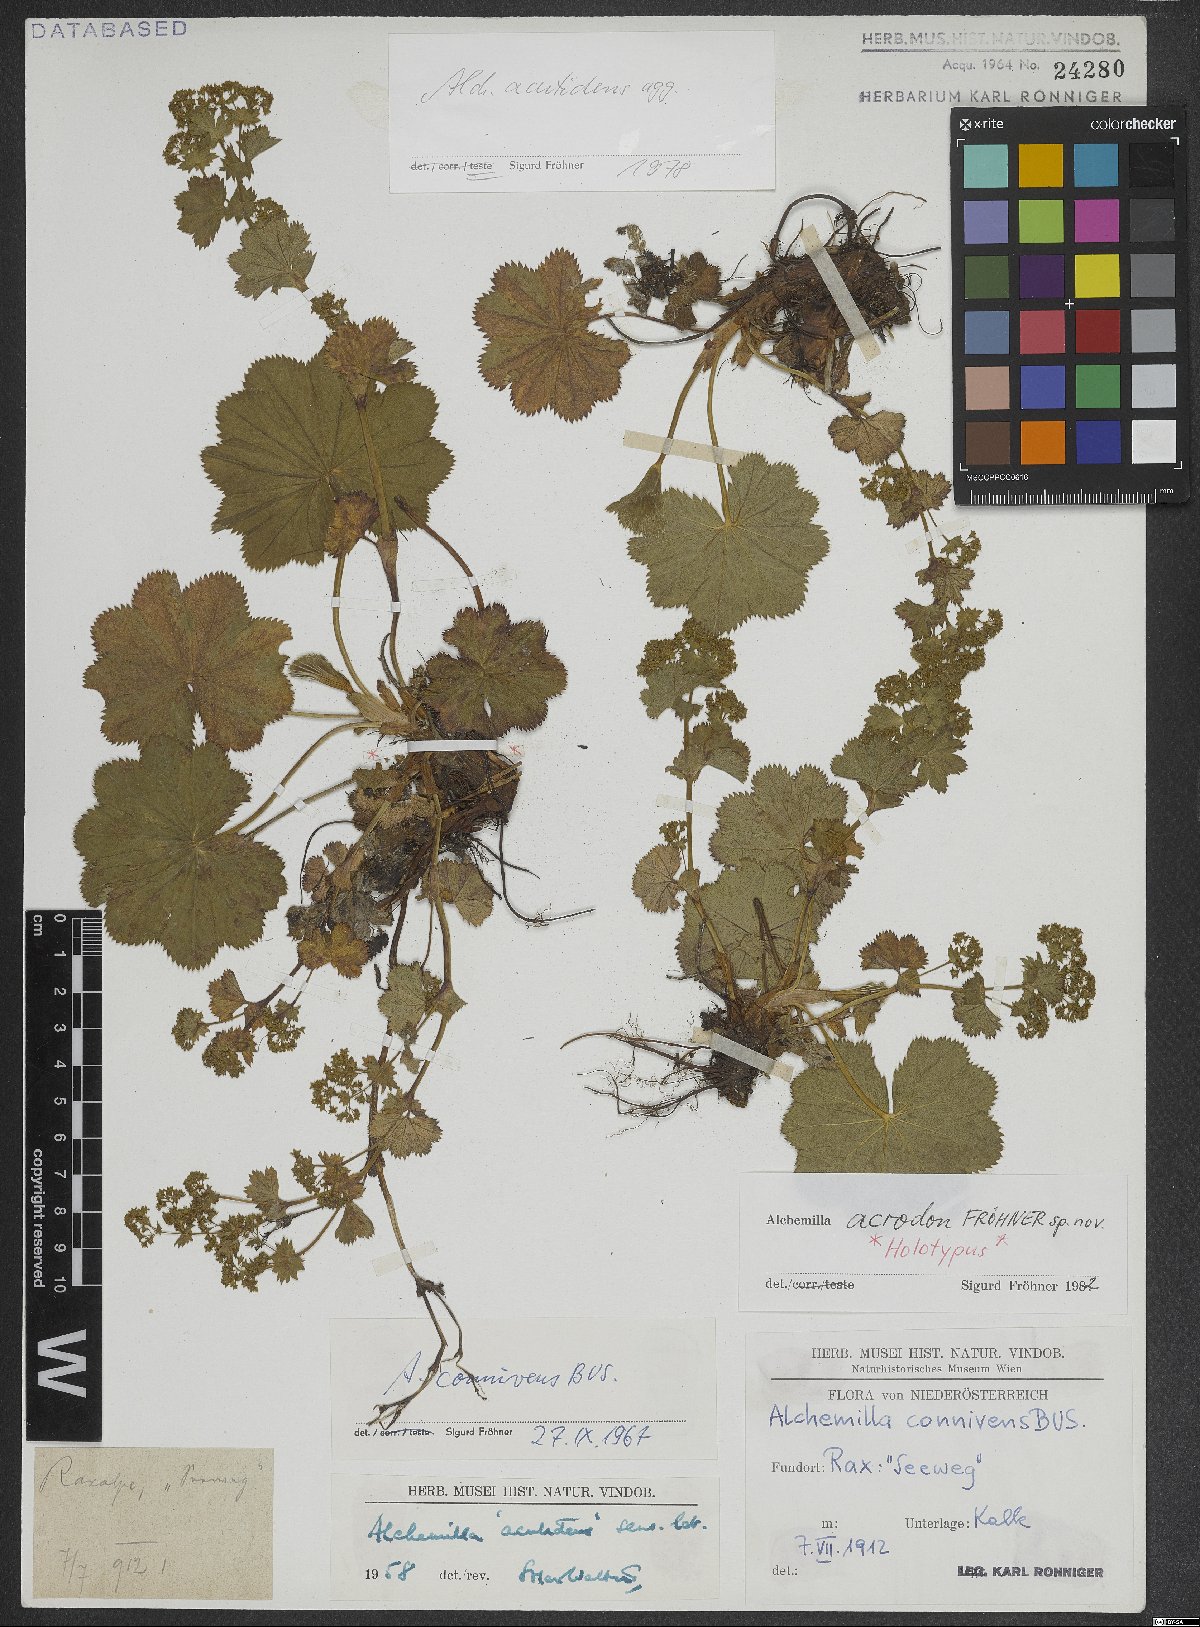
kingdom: Plantae
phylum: Tracheophyta
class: Magnoliopsida
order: Rosales
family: Rosaceae
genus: Alchemilla
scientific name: Alchemilla acrodon
